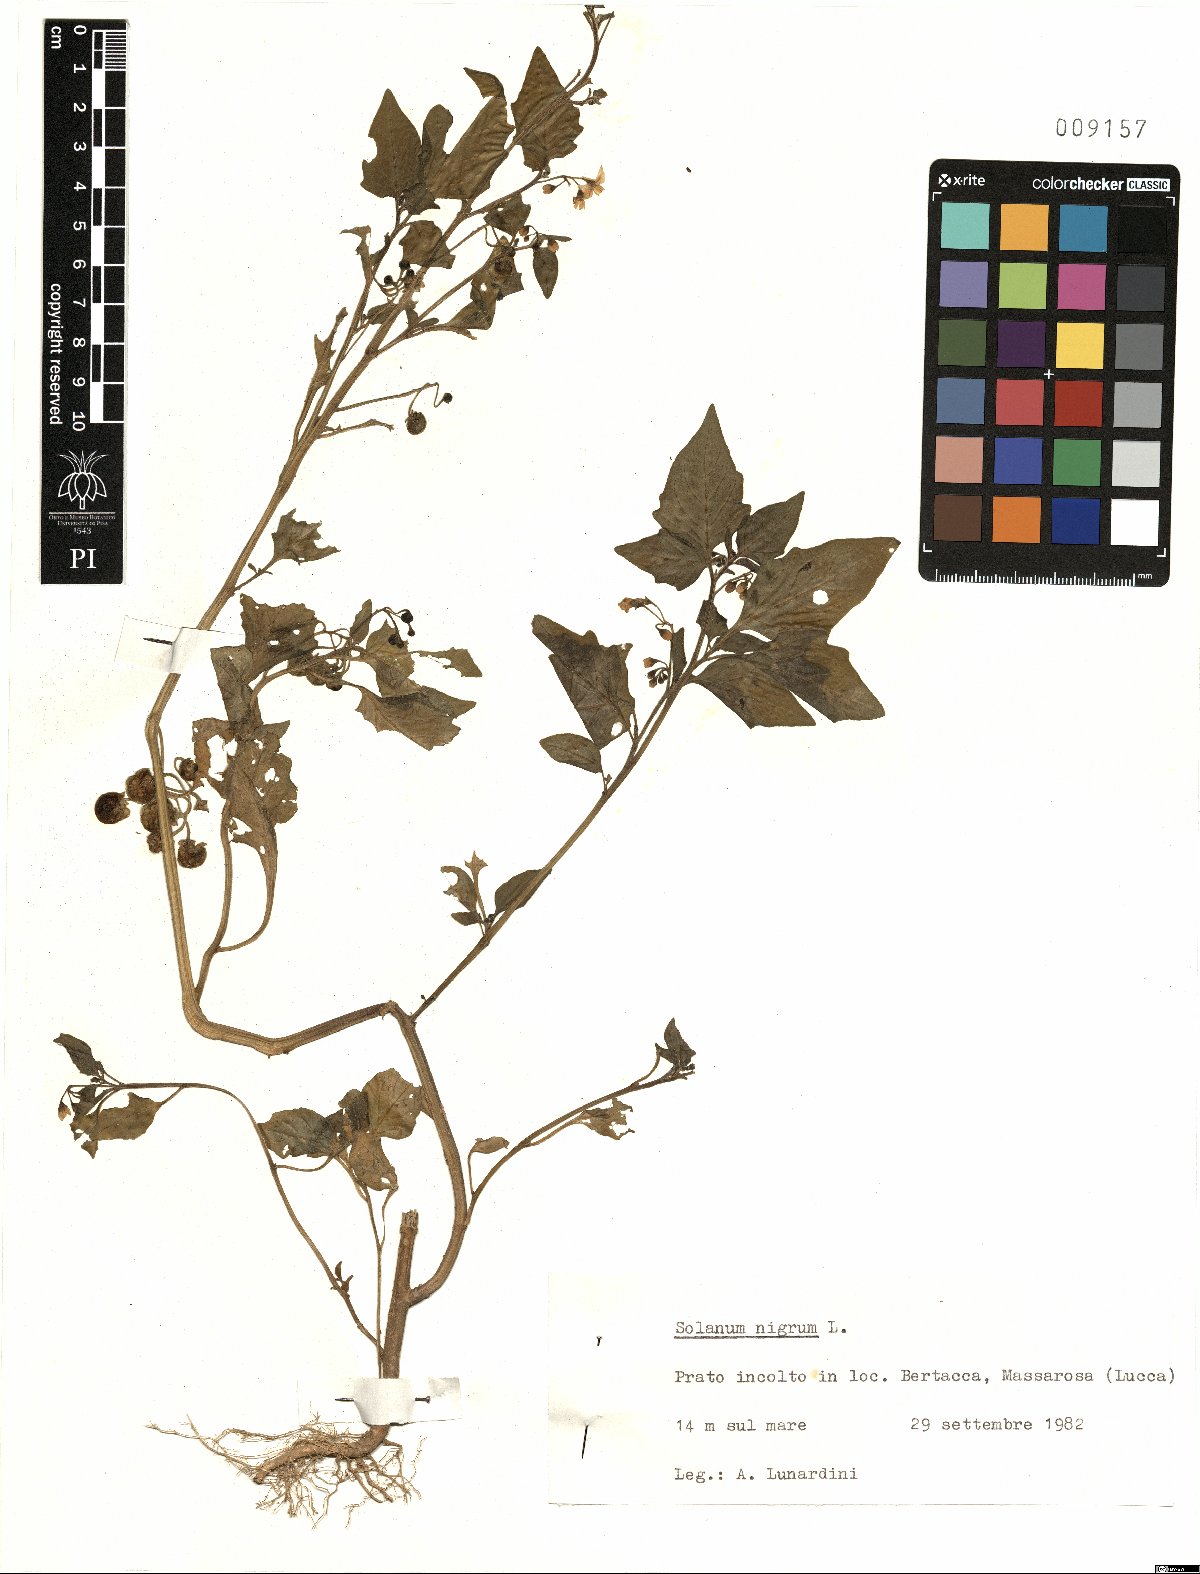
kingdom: Plantae
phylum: Tracheophyta
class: Magnoliopsida
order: Solanales
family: Solanaceae
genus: Solanum
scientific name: Solanum nigrum
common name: Black nightshade
